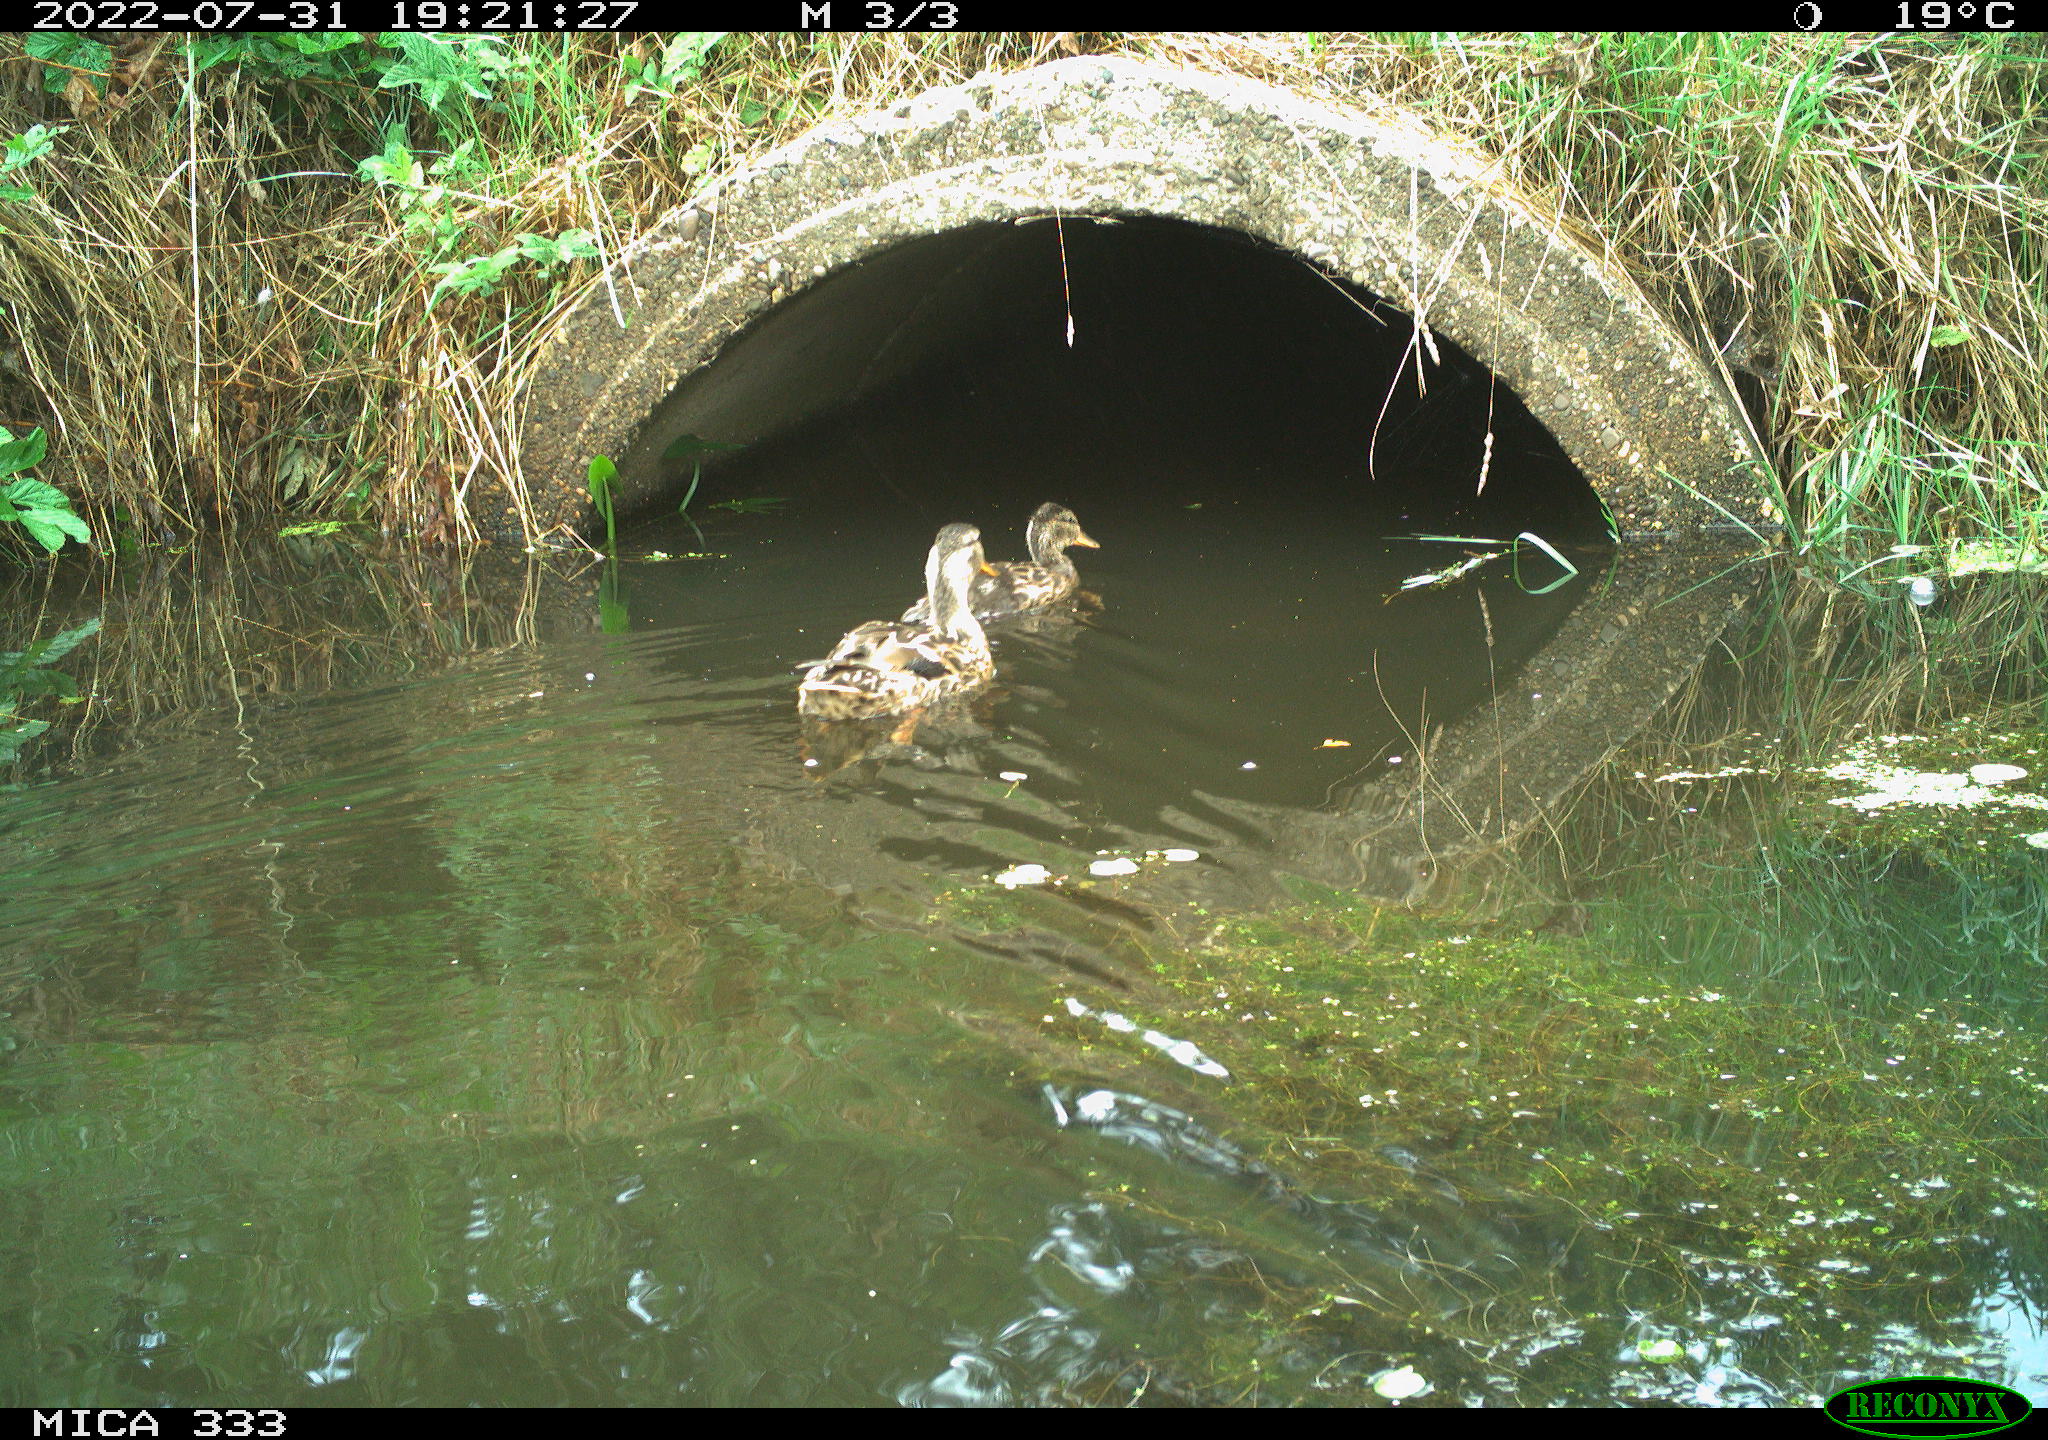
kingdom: Animalia
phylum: Chordata
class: Aves
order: Anseriformes
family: Anatidae
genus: Anas
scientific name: Anas platyrhynchos
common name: Mallard
